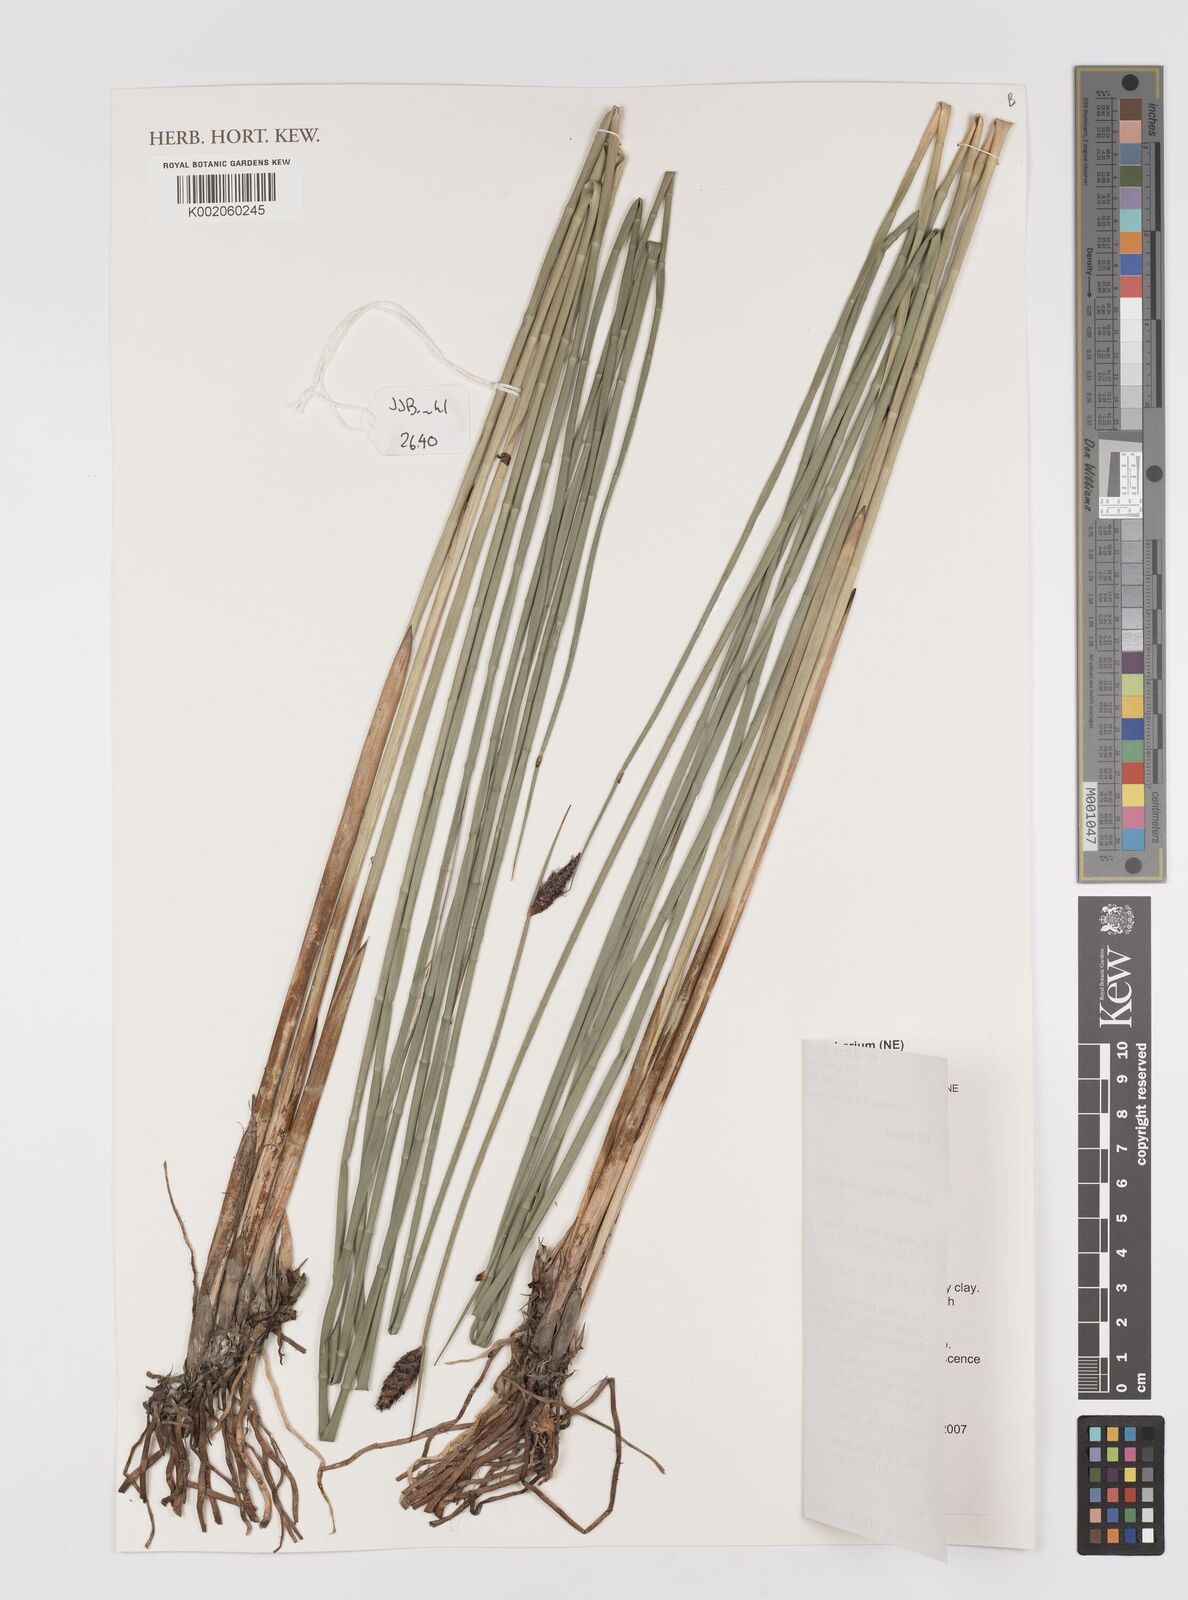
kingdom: Plantae
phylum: Tracheophyta
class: Liliopsida
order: Poales
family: Cyperaceae
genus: Lepironia
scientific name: Lepironia articulata
